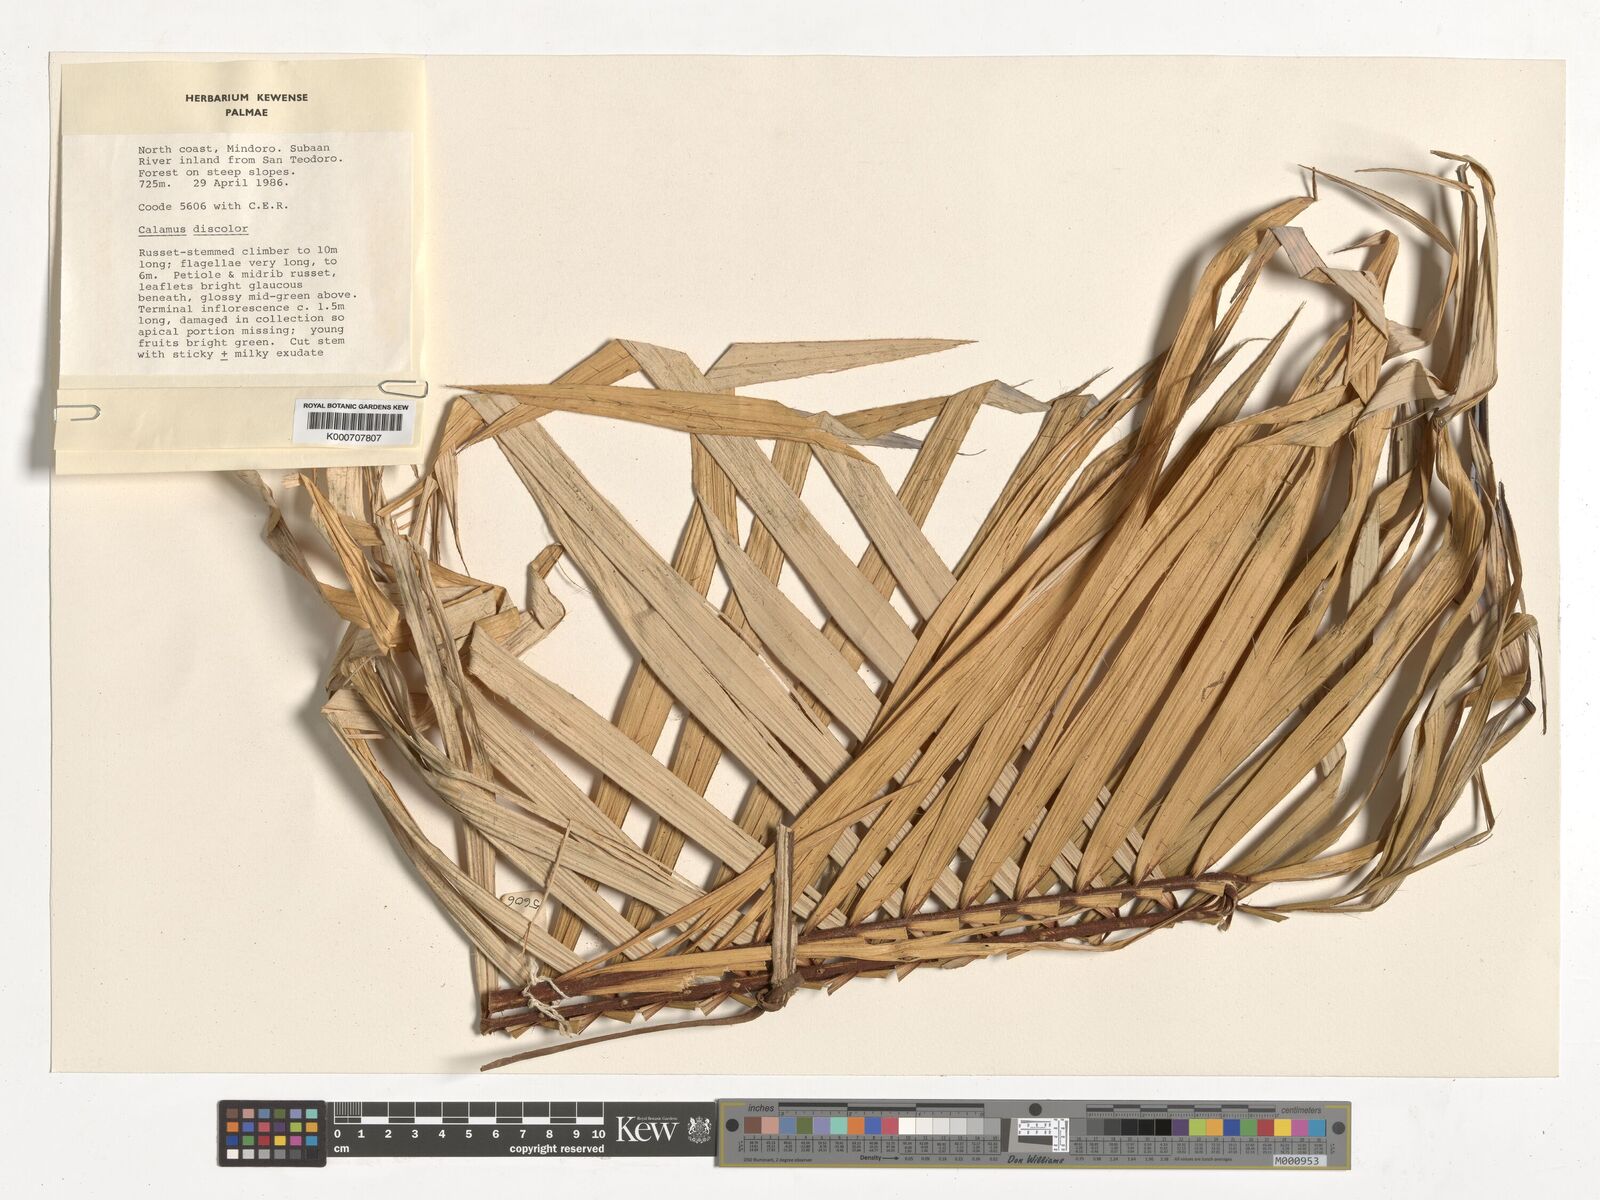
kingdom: Plantae
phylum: Tracheophyta
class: Liliopsida
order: Arecales
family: Arecaceae
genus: Calamus
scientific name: Calamus discolor
